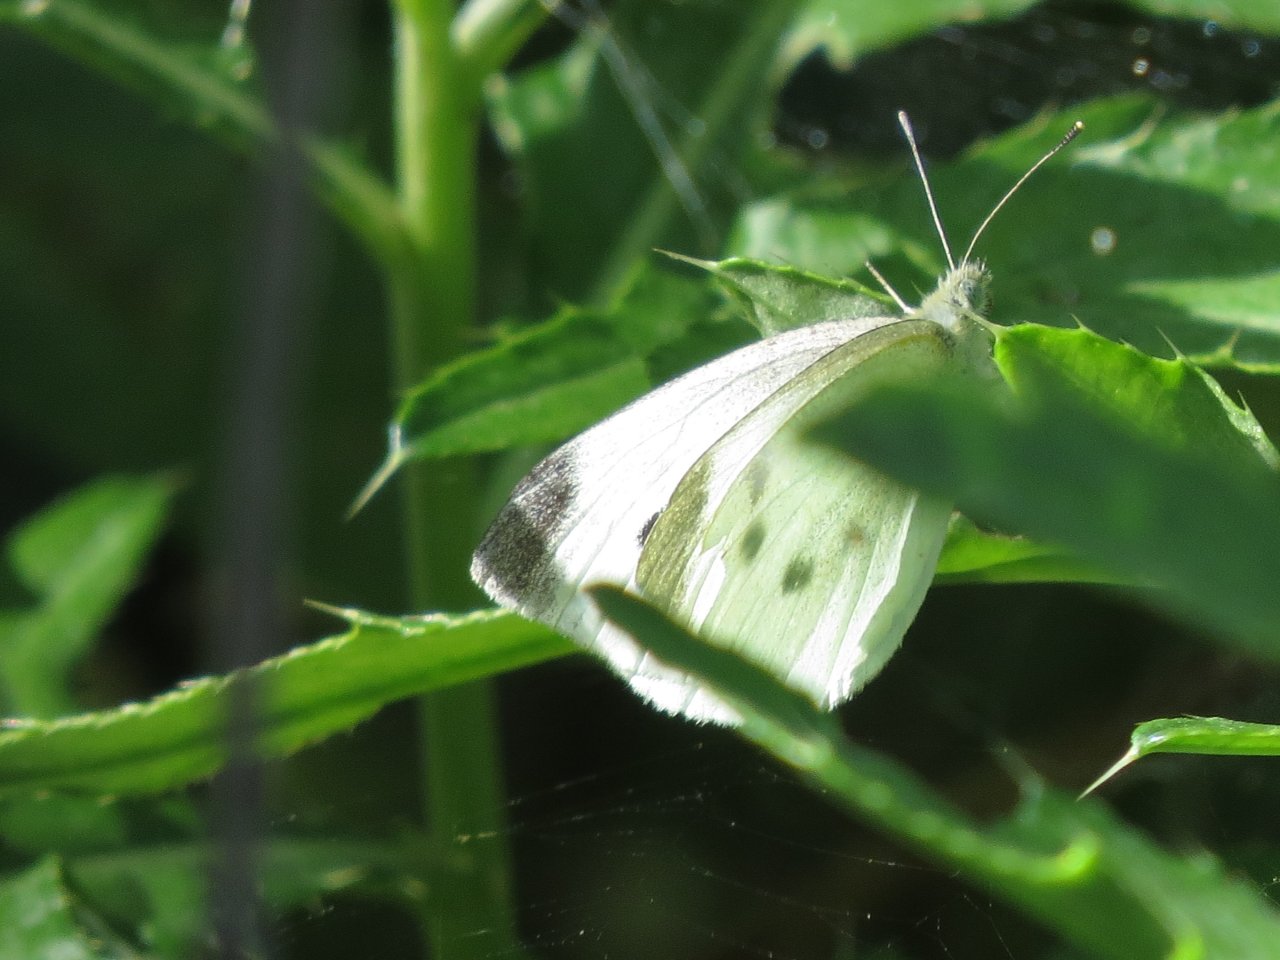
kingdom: Animalia
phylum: Arthropoda
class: Insecta
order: Lepidoptera
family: Pieridae
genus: Pieris
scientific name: Pieris rapae
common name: Cabbage White
